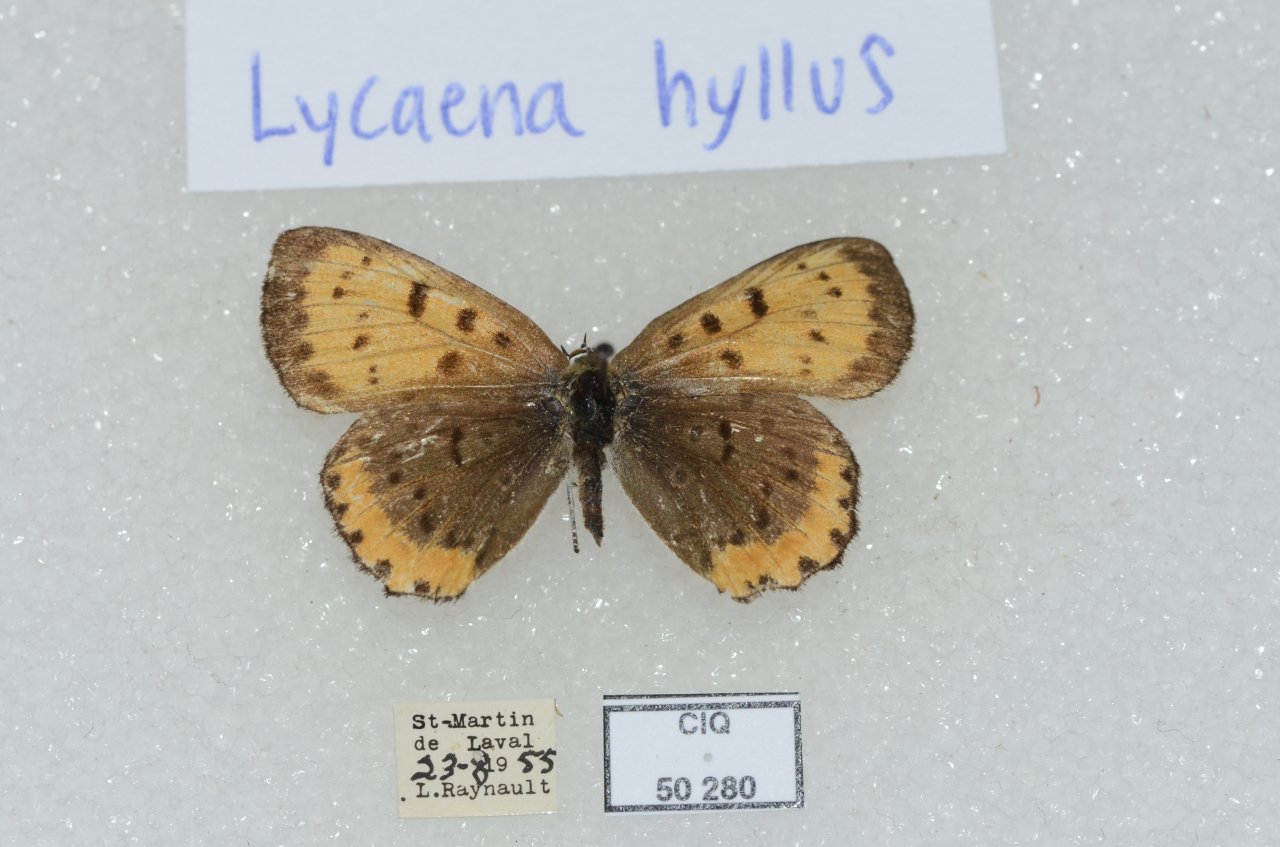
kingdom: Animalia
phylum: Arthropoda
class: Insecta
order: Lepidoptera
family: Sesiidae
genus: Sesia
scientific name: Sesia Lycaena hyllus
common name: Bronze Copper
